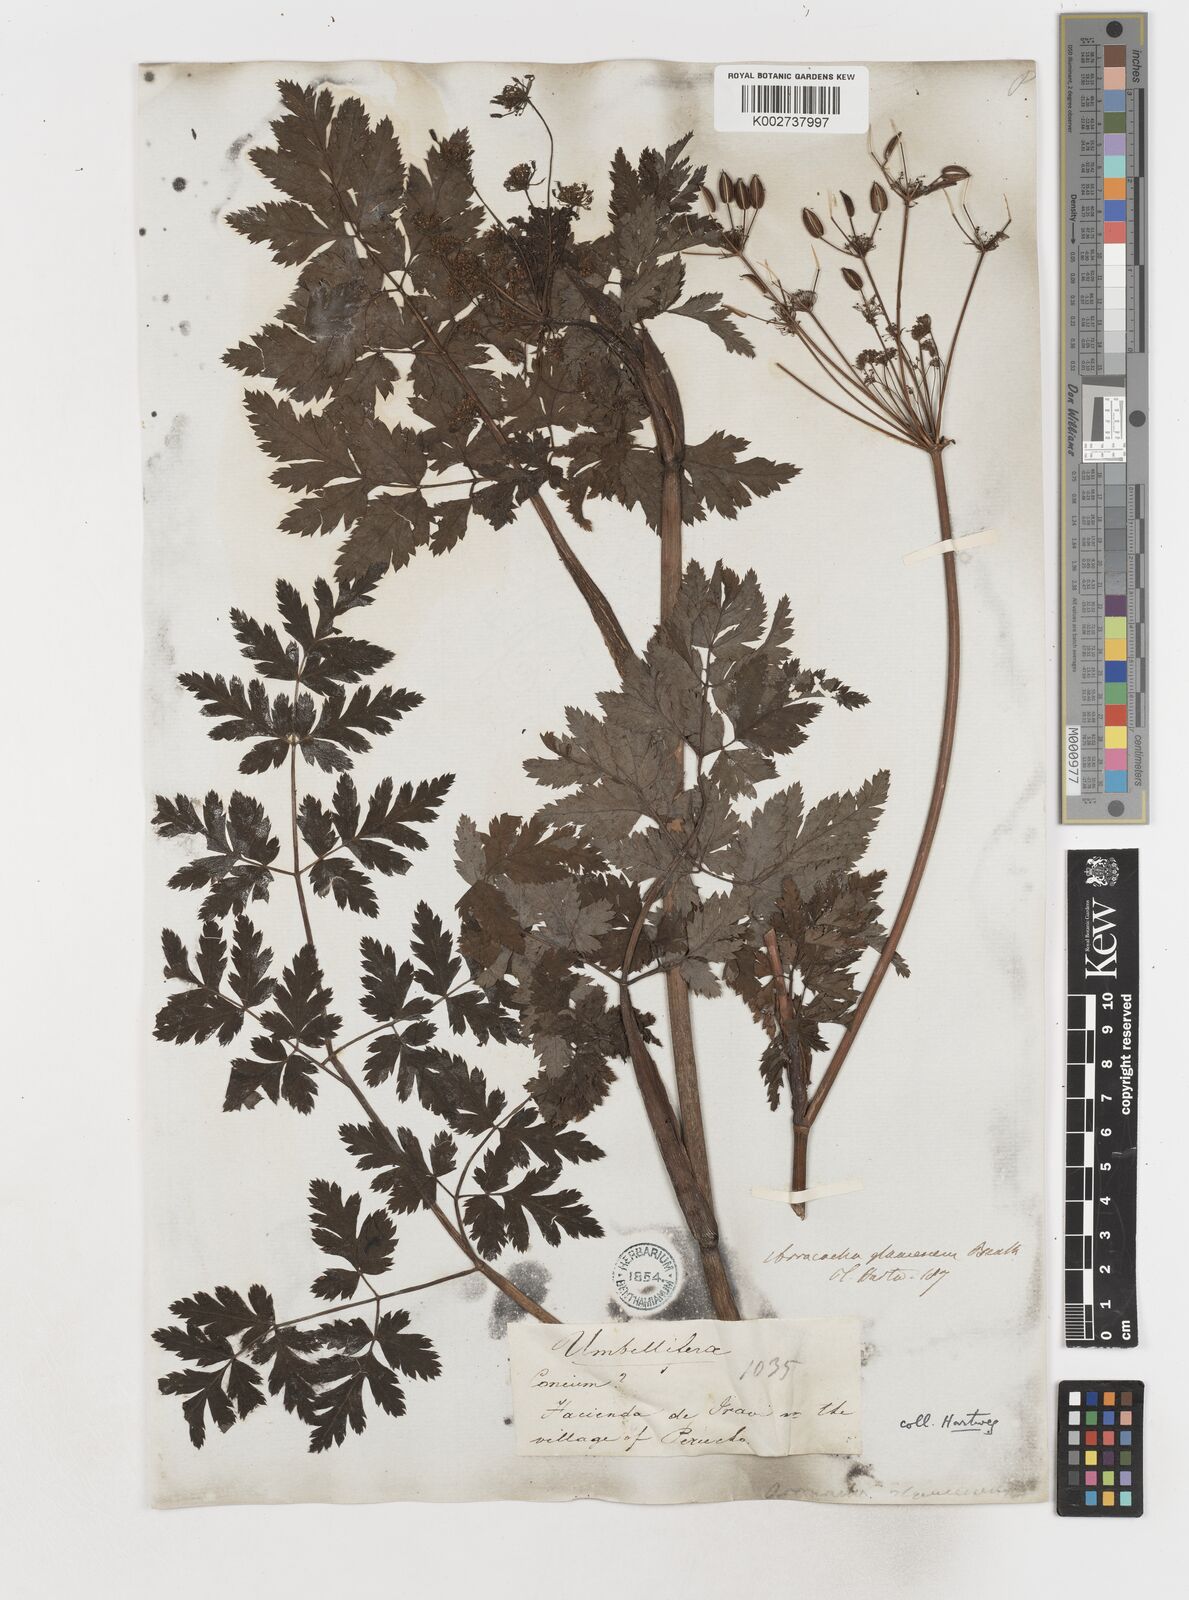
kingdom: Plantae
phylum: Tracheophyta
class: Magnoliopsida
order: Apiales
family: Apiaceae
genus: Myrrhidendron
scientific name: Myrrhidendron glaucescens
